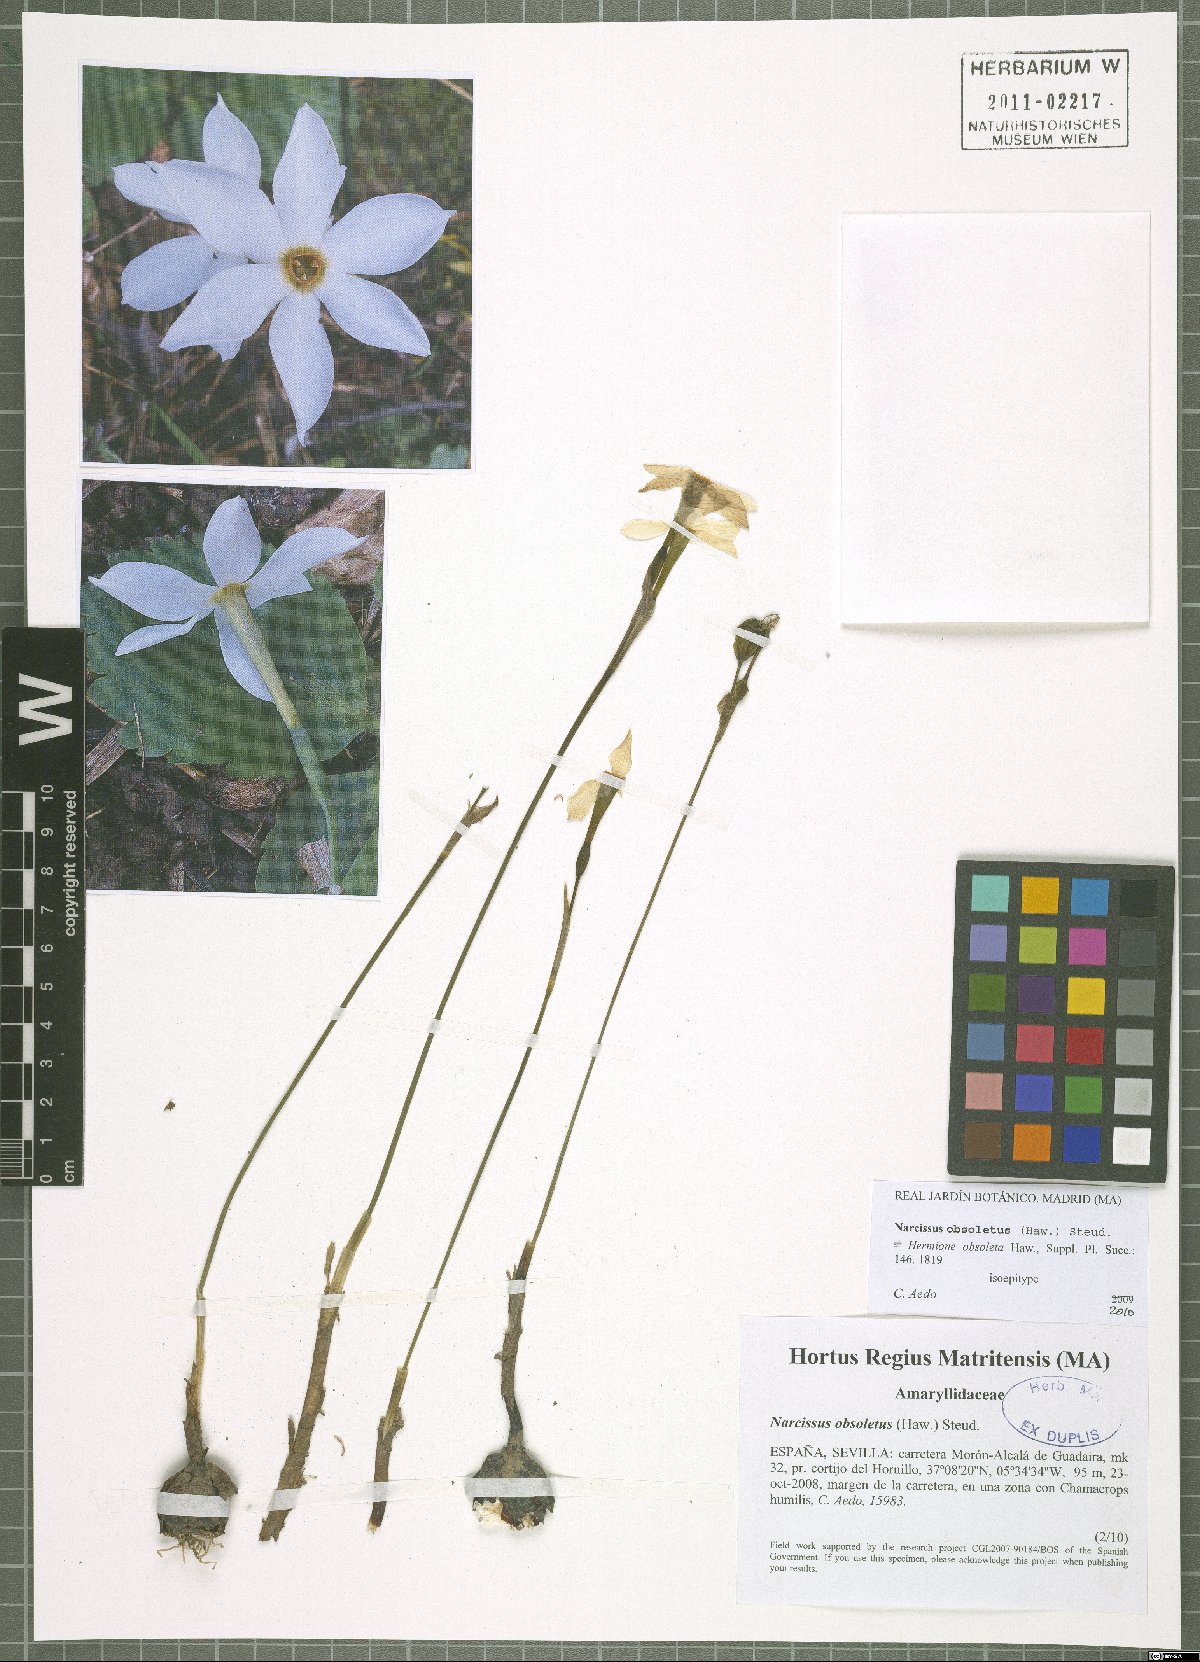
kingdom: Plantae
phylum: Tracheophyta
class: Liliopsida
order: Asparagales
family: Amaryllidaceae
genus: Narcissus
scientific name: Narcissus obsoletus
